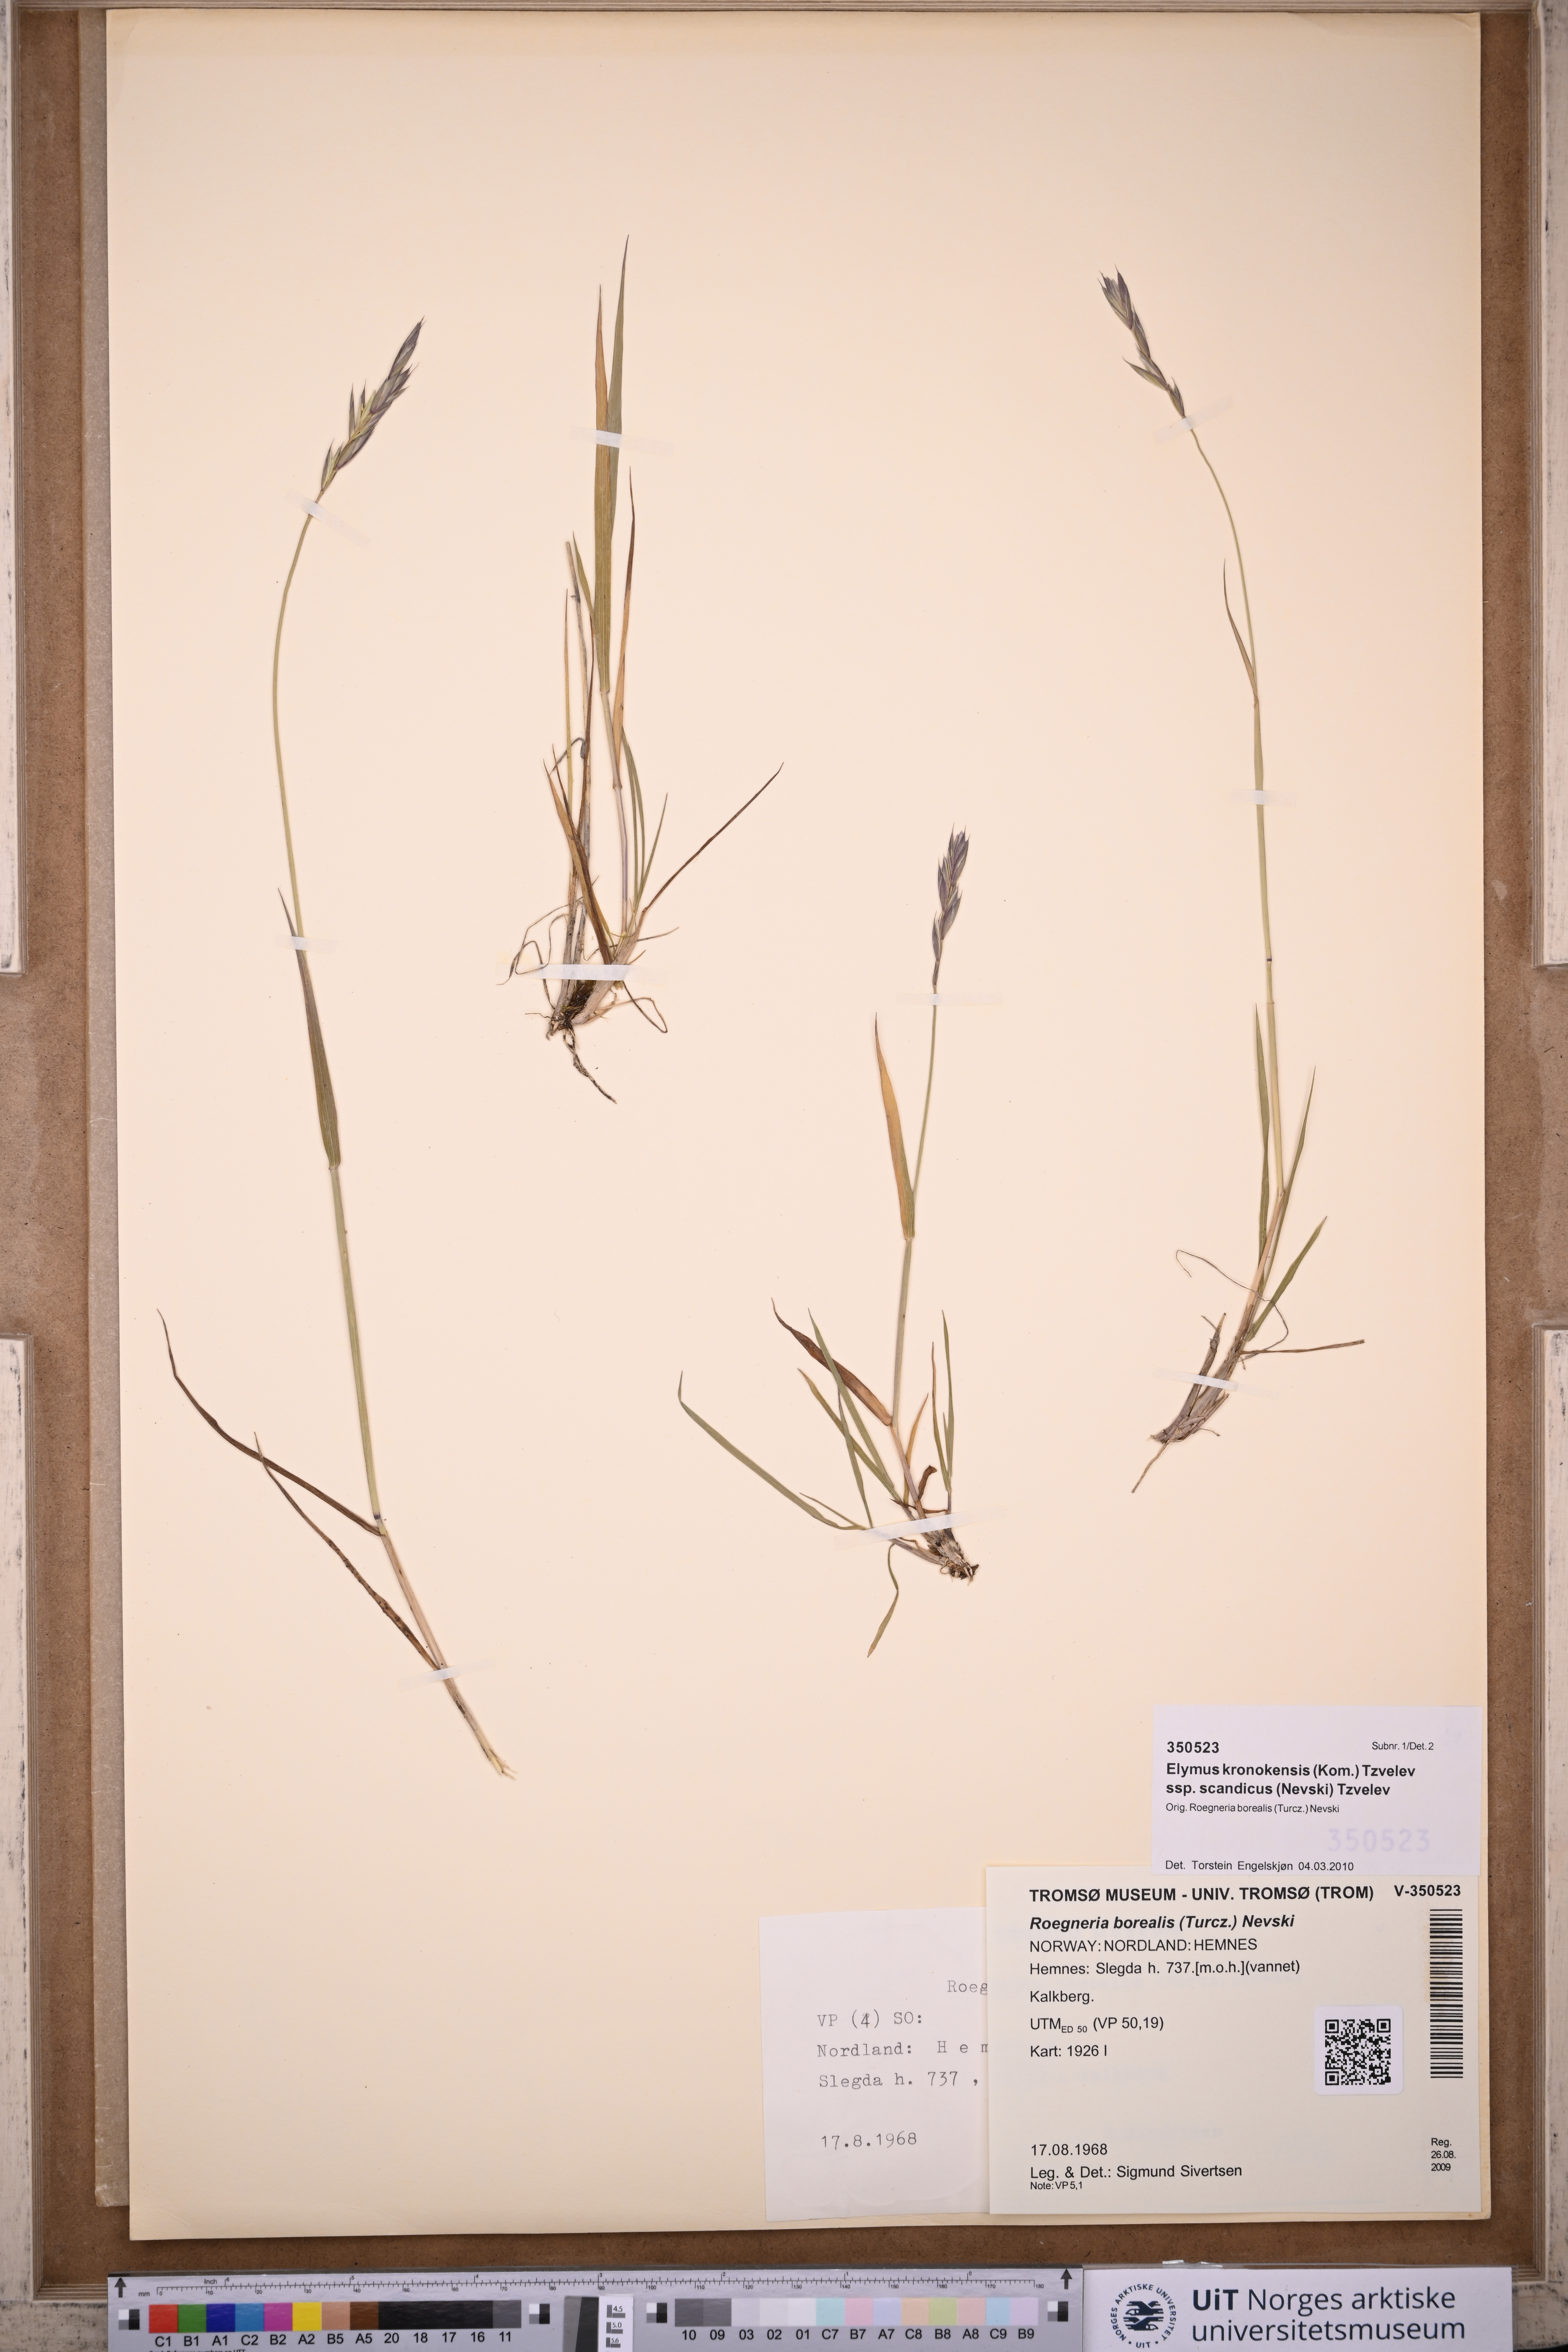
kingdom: Plantae
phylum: Tracheophyta
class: Liliopsida
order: Poales
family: Poaceae
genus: Elymus
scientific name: Elymus macrourus
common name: Northern wheatgrass
